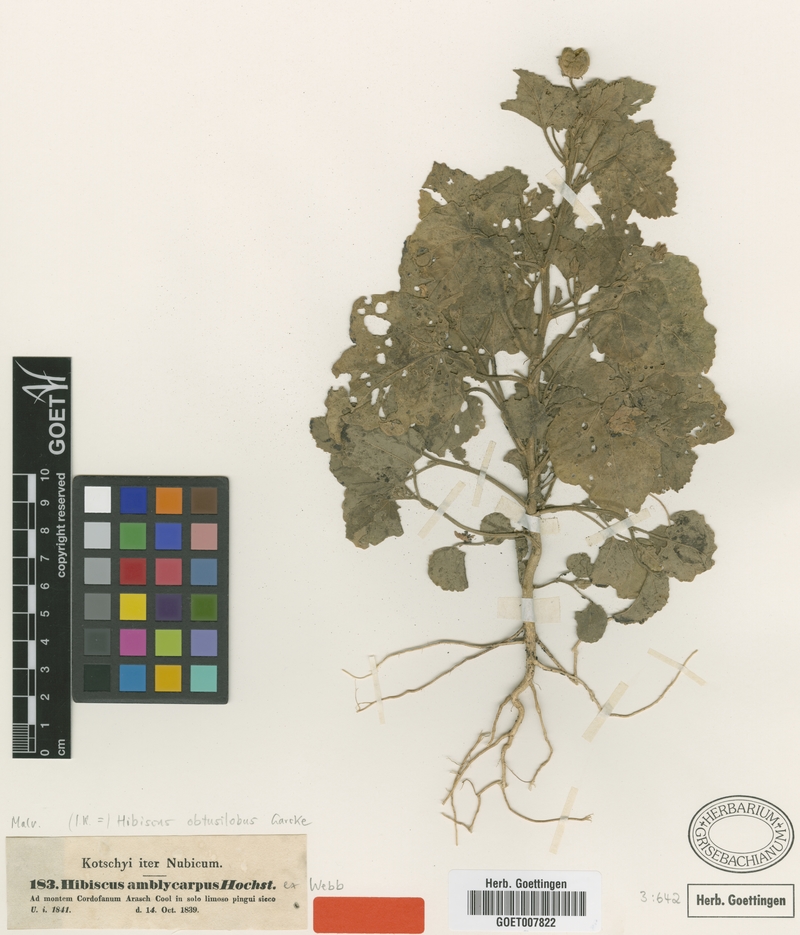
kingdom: Plantae
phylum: Tracheophyta
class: Magnoliopsida
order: Malvales
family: Malvaceae
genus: Hibiscus
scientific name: Hibiscus obtusilobus
